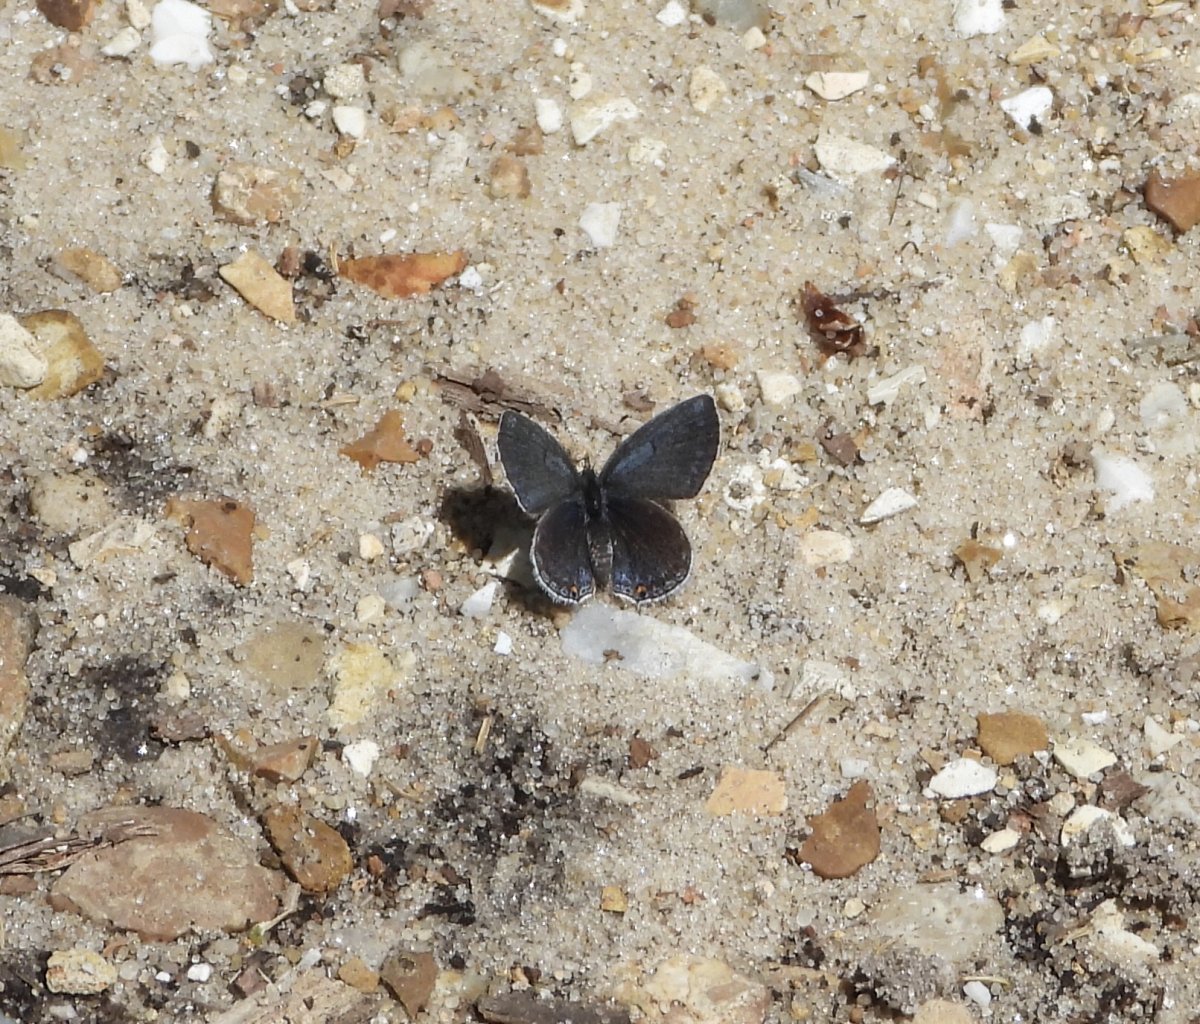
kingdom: Animalia
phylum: Arthropoda
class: Insecta
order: Lepidoptera
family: Lycaenidae
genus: Elkalyce
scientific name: Elkalyce comyntas
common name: Eastern Tailed-Blue
